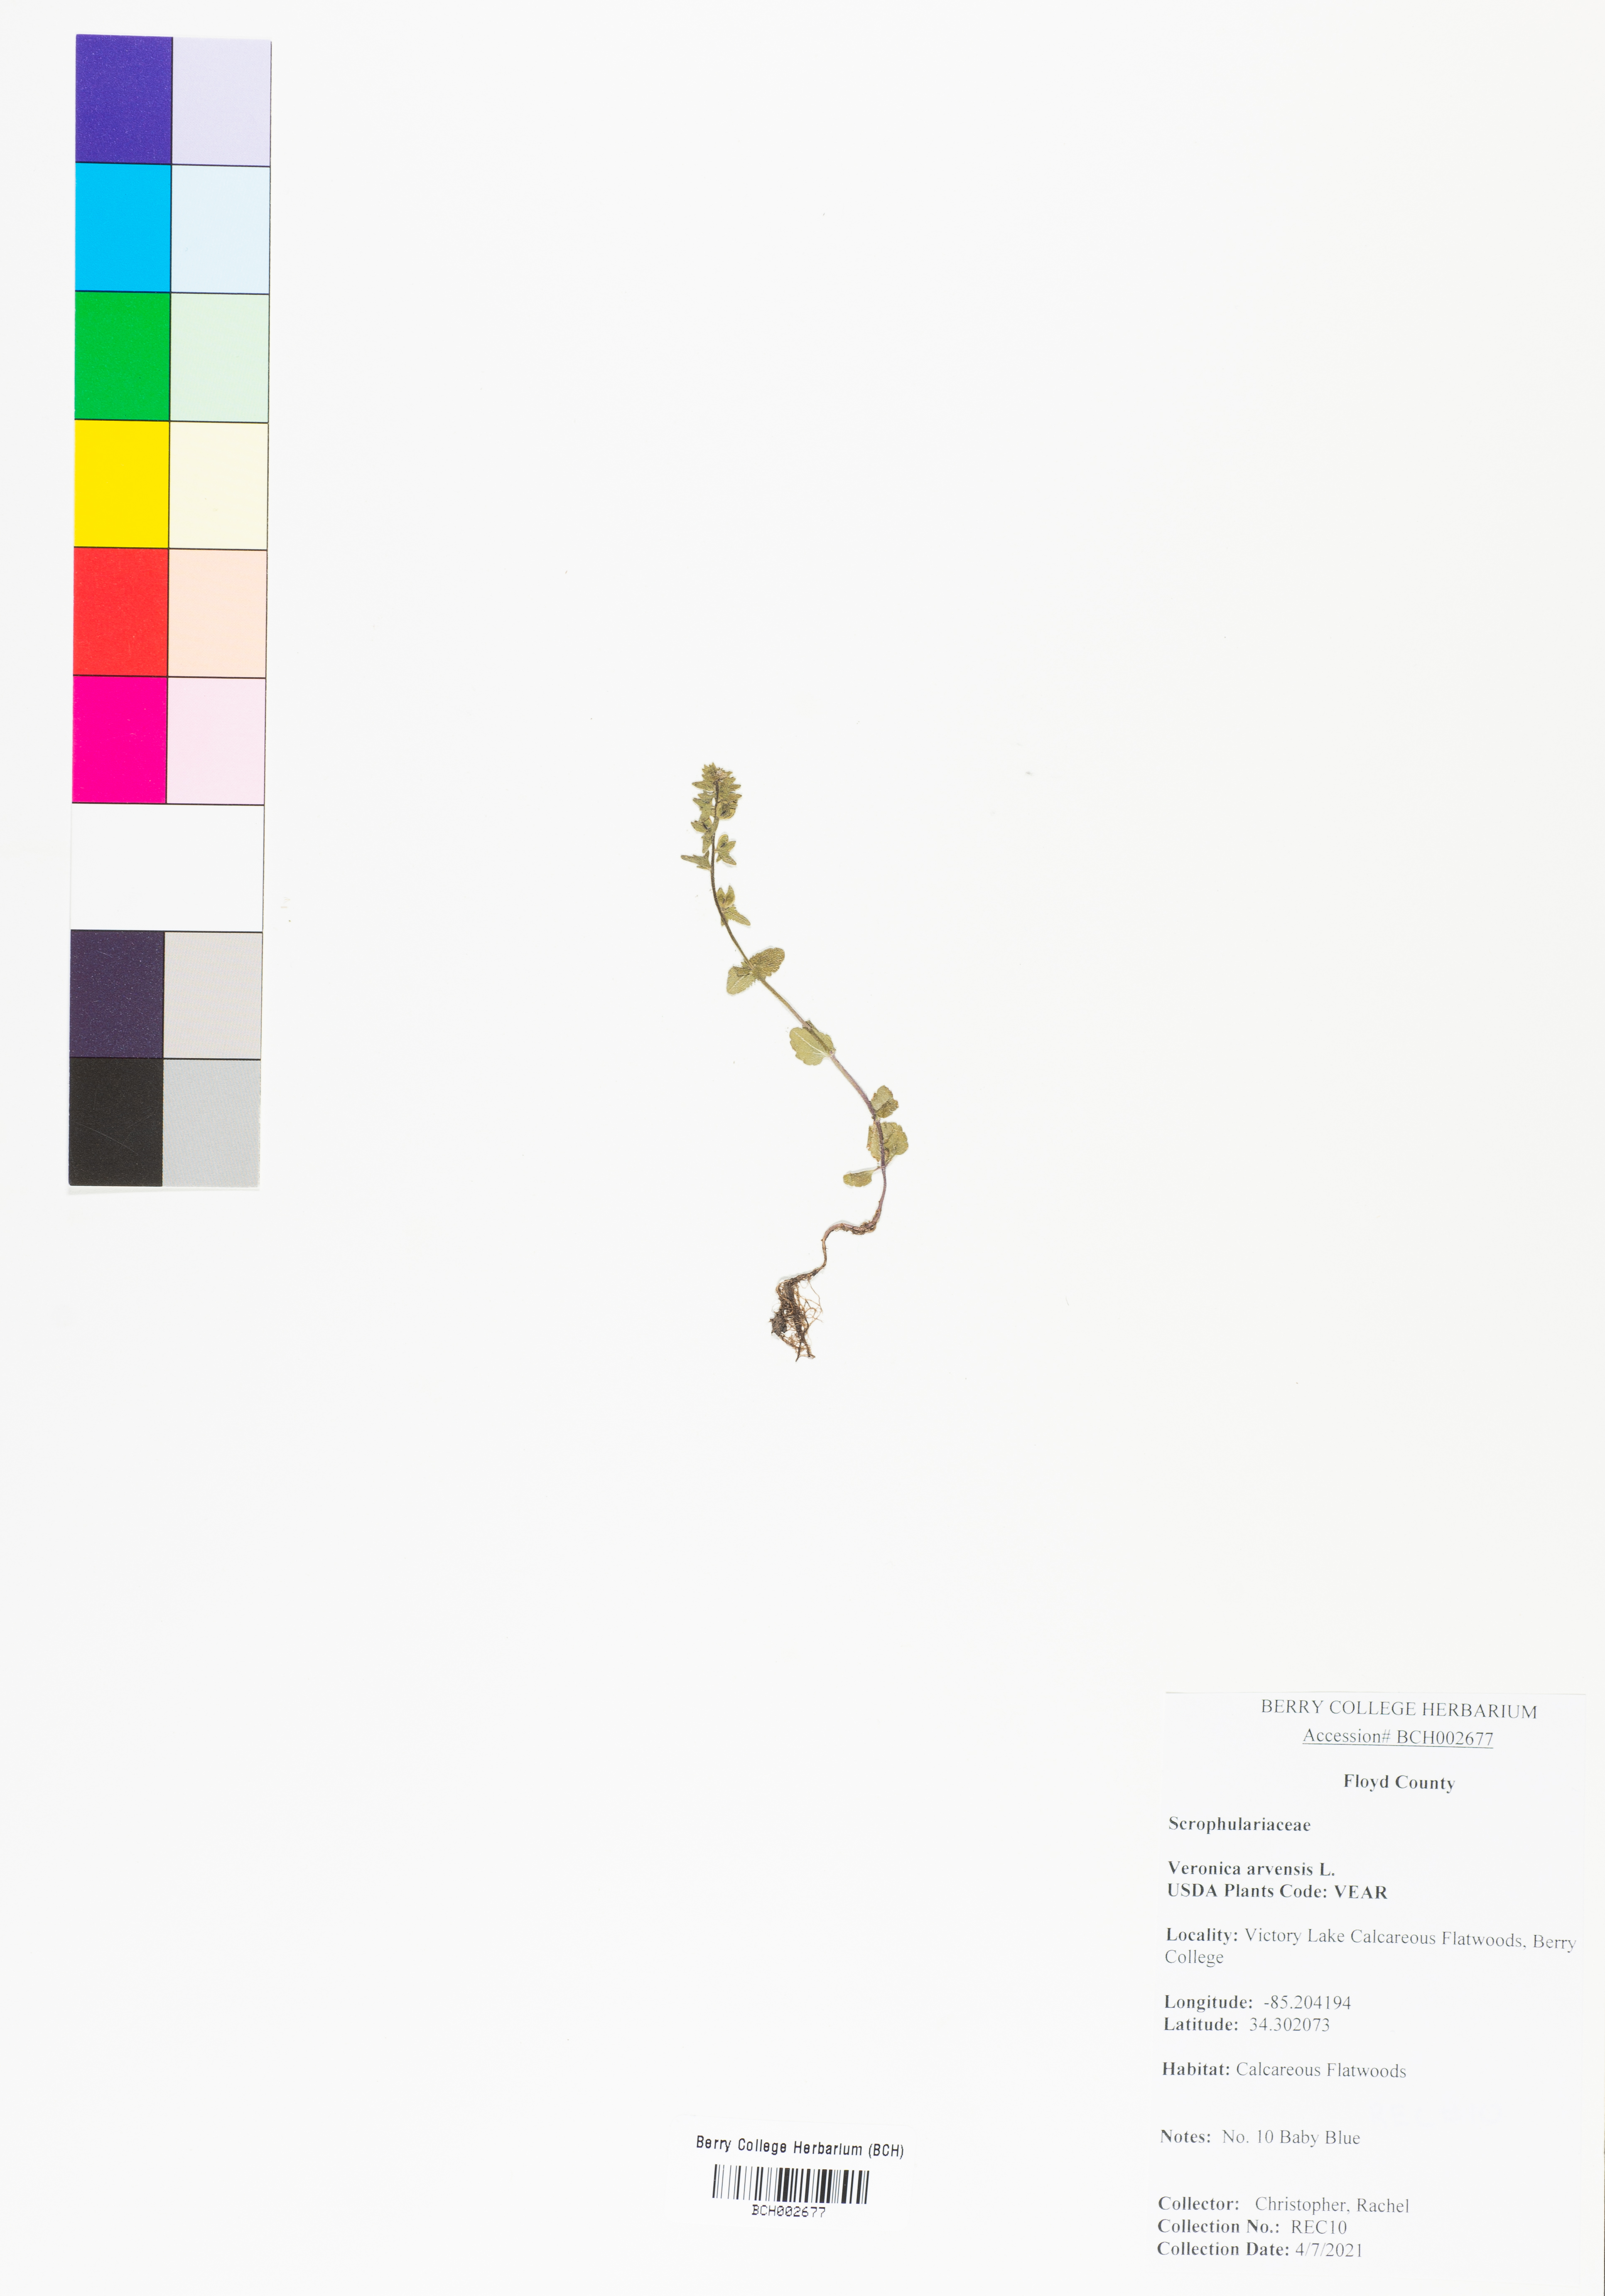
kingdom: Plantae
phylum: Tracheophyta
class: Magnoliopsida
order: Lamiales
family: Plantaginaceae
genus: Veronica
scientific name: Veronica arvensis
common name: Corn speedwell
